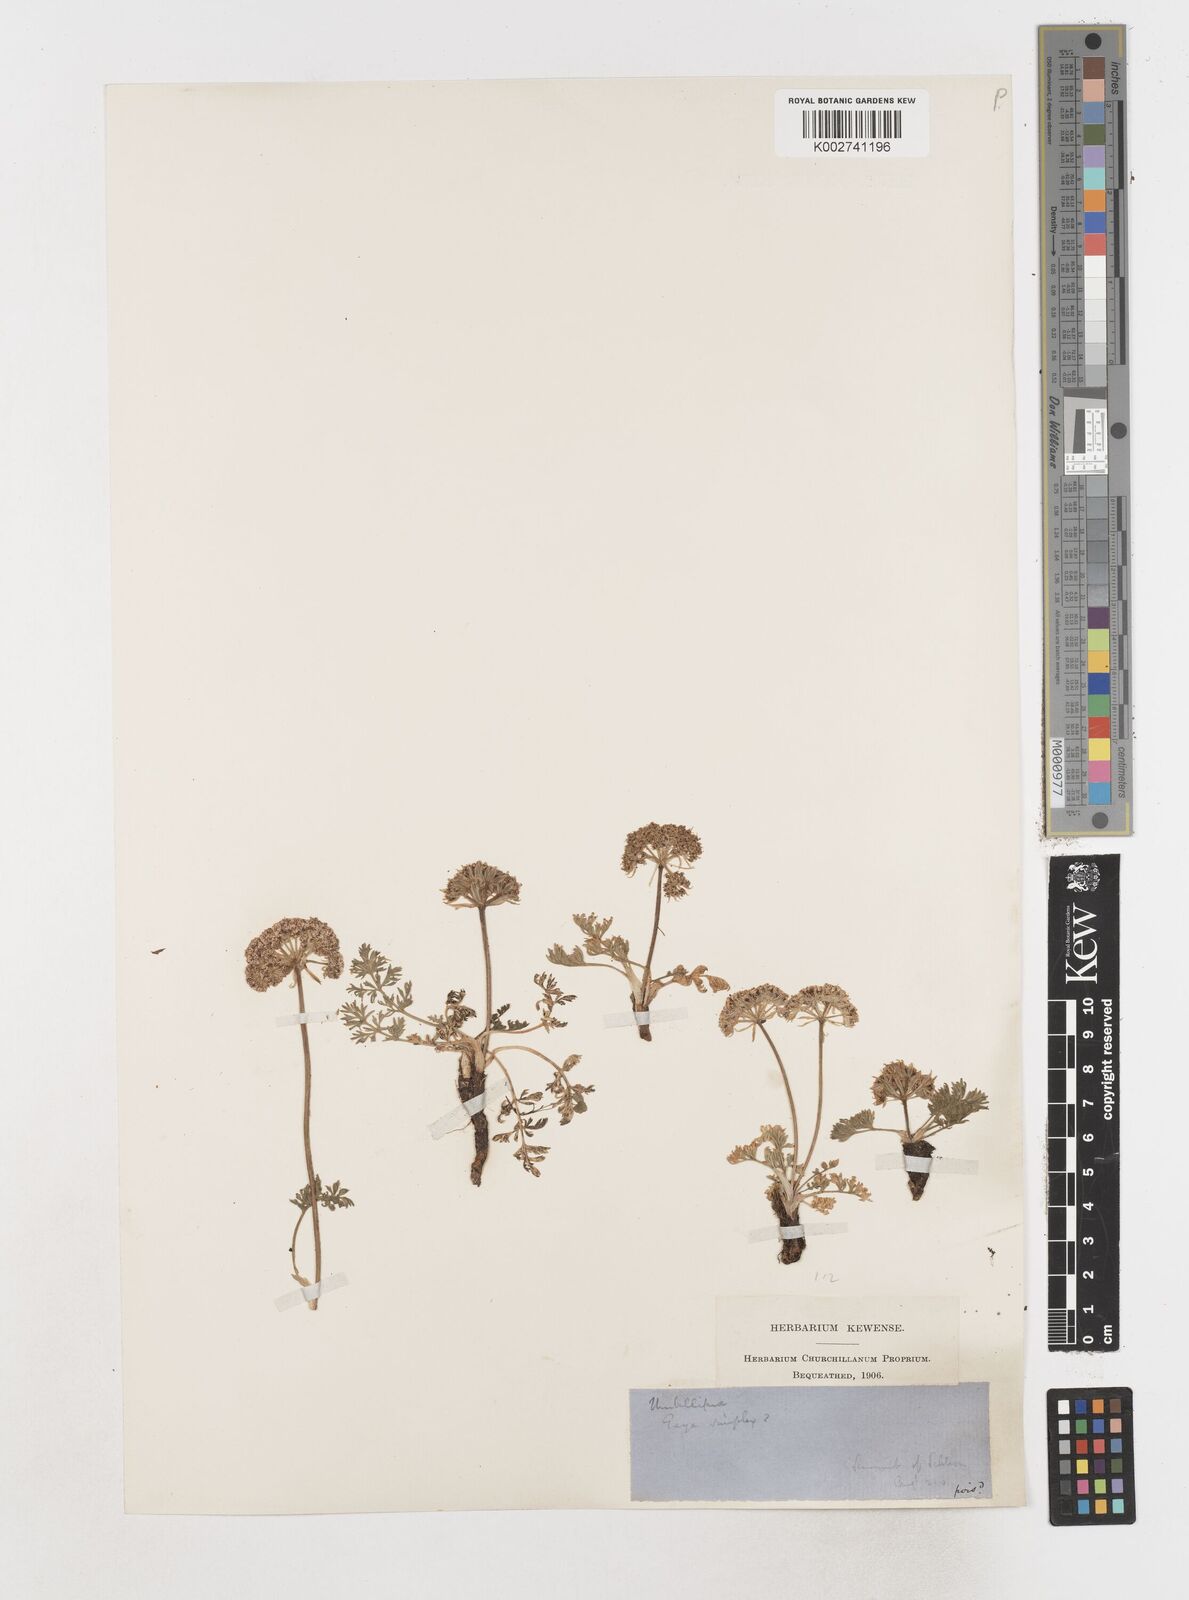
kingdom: Plantae
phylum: Tracheophyta
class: Magnoliopsida
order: Apiales
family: Apiaceae
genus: Pachypleurum
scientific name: Pachypleurum mutellinoides
